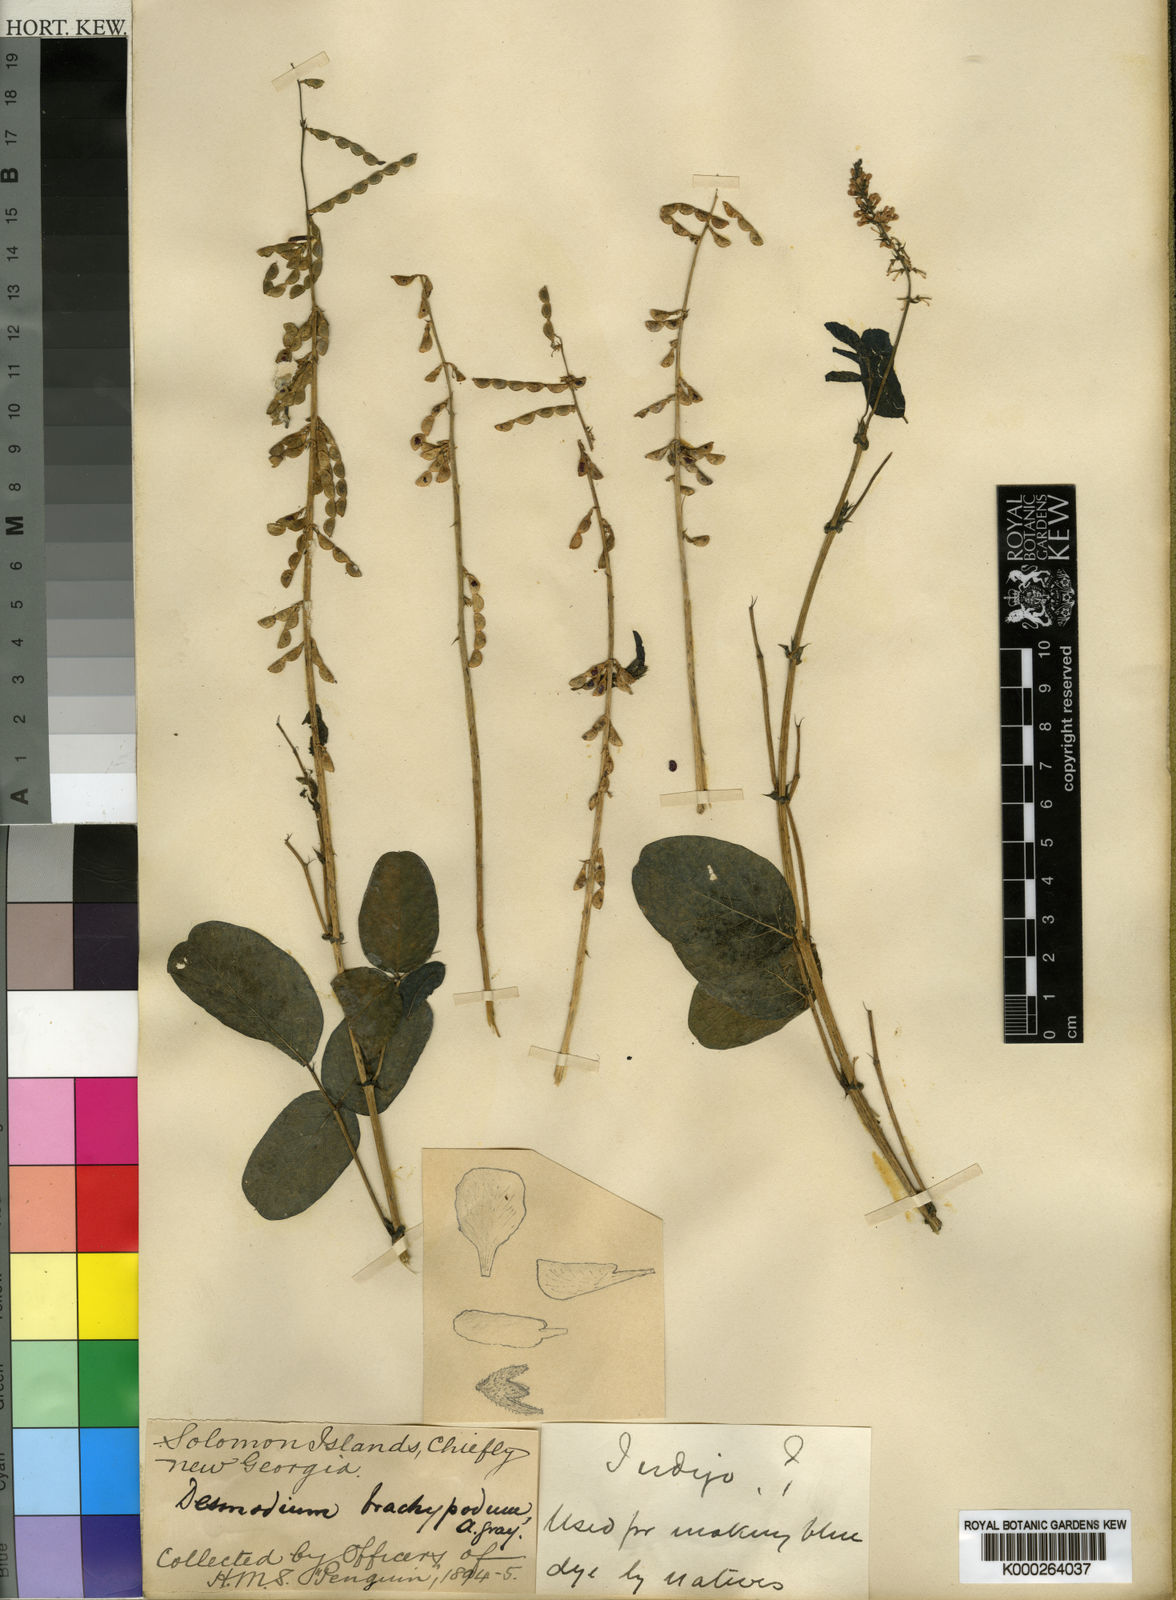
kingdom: Plantae
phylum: Tracheophyta
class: Magnoliopsida
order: Fabales
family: Fabaceae
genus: Oxytes
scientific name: Oxytes brachypoda
